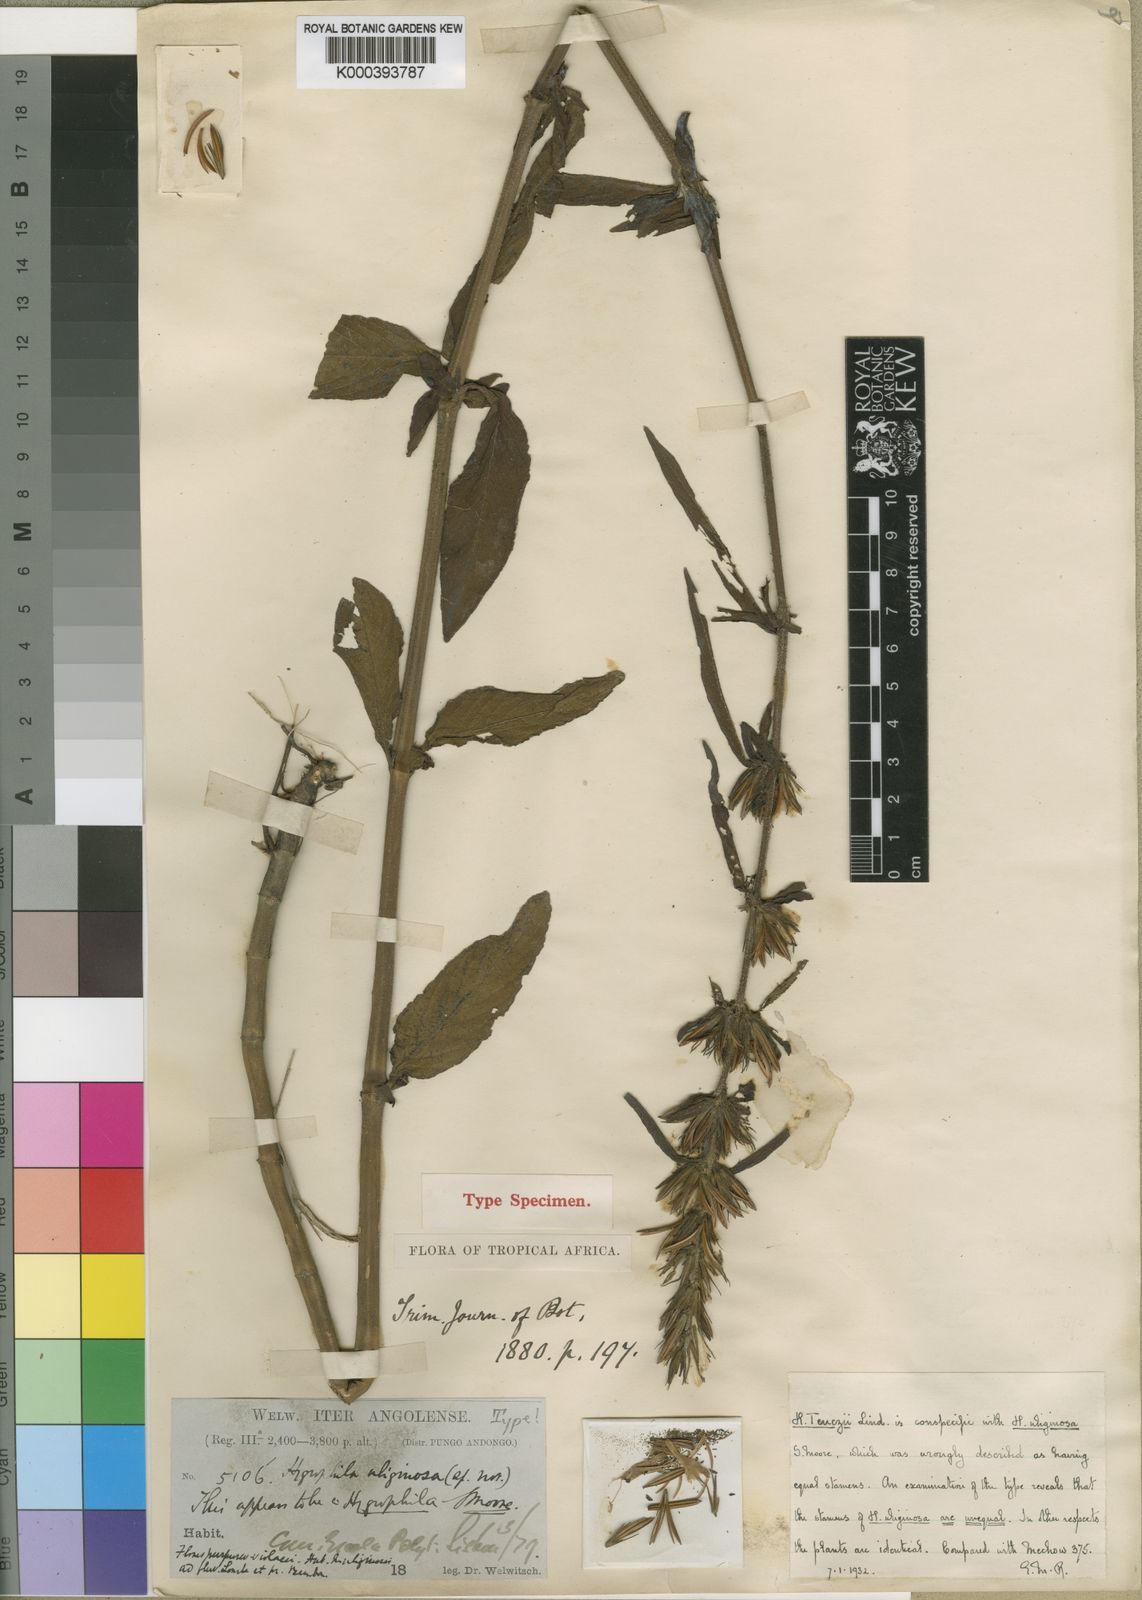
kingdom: Plantae
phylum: Tracheophyta
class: Magnoliopsida
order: Lamiales
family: Acanthaceae
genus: Hygrophila
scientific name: Hygrophila uliginosa
